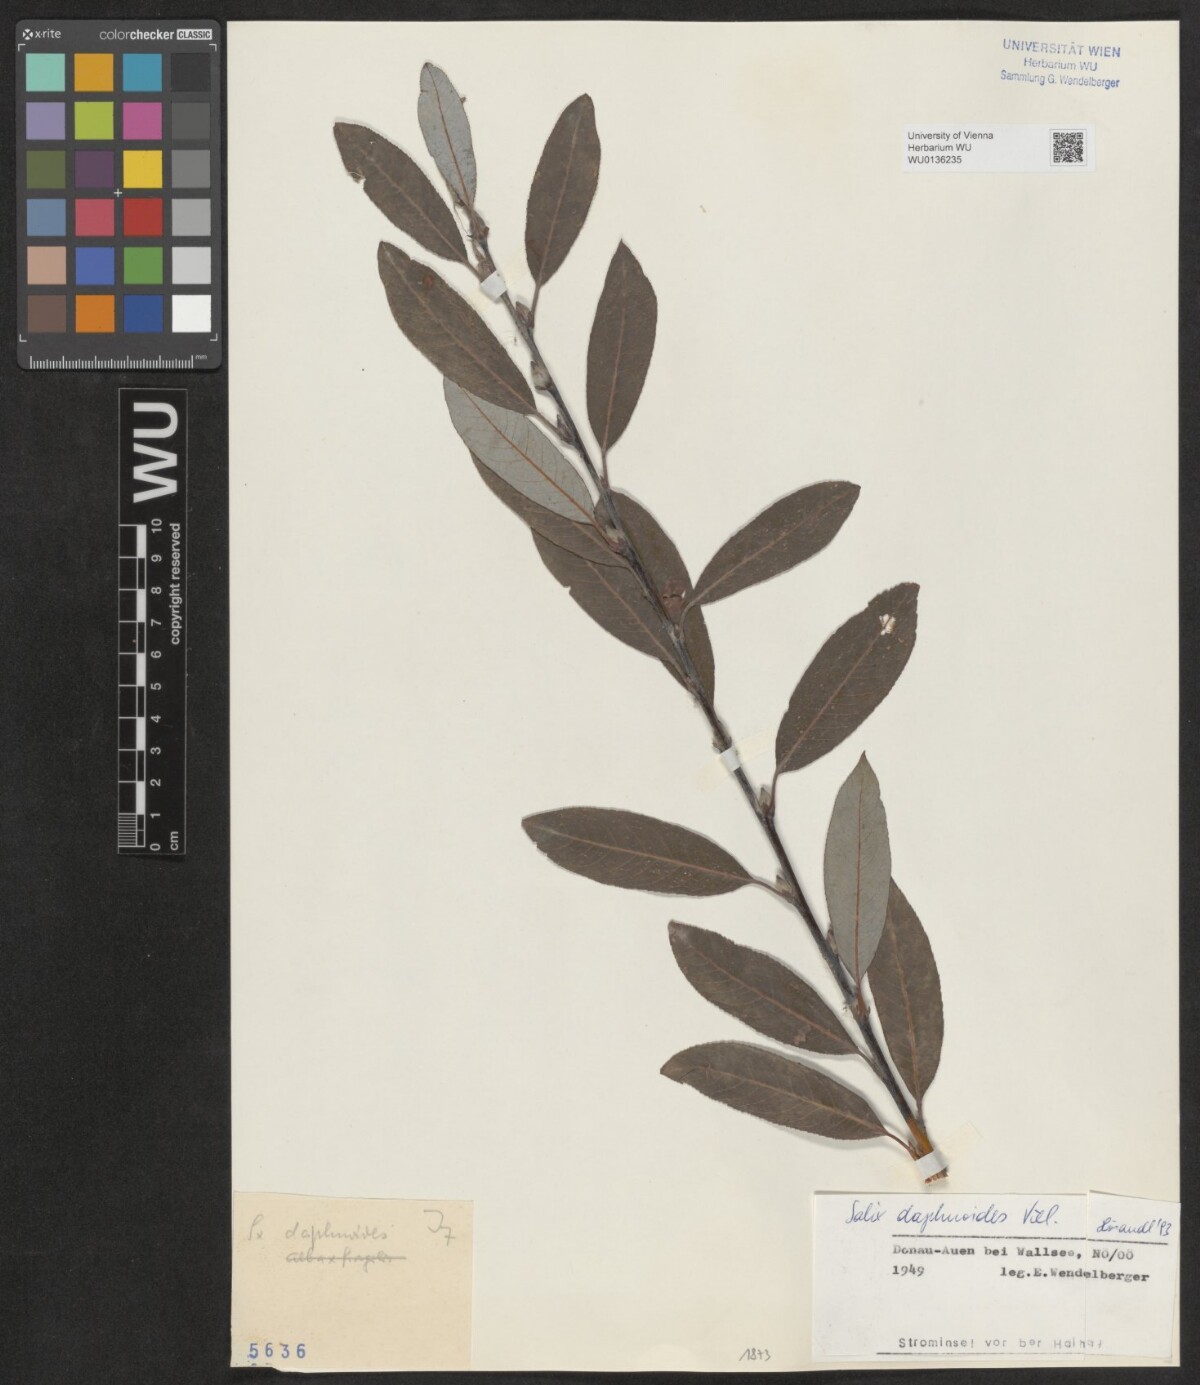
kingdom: Plantae
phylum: Tracheophyta
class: Magnoliopsida
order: Malpighiales
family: Salicaceae
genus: Salix
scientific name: Salix daphnoides
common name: European violet-willow
